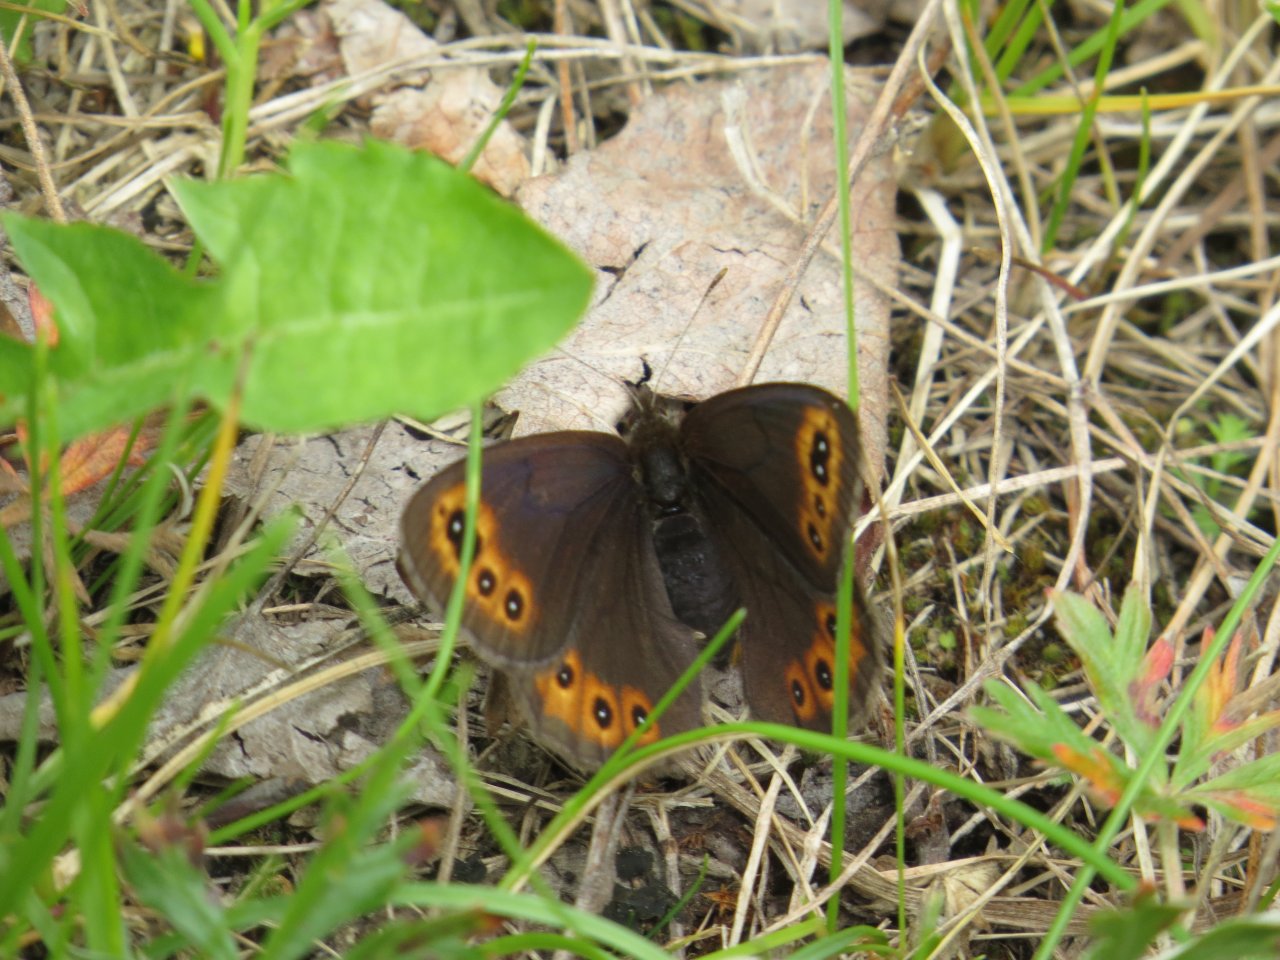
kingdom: Animalia
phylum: Arthropoda
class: Insecta
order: Lepidoptera
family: Nymphalidae
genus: Erebia
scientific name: Erebia epipsodea
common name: Common Alpine
